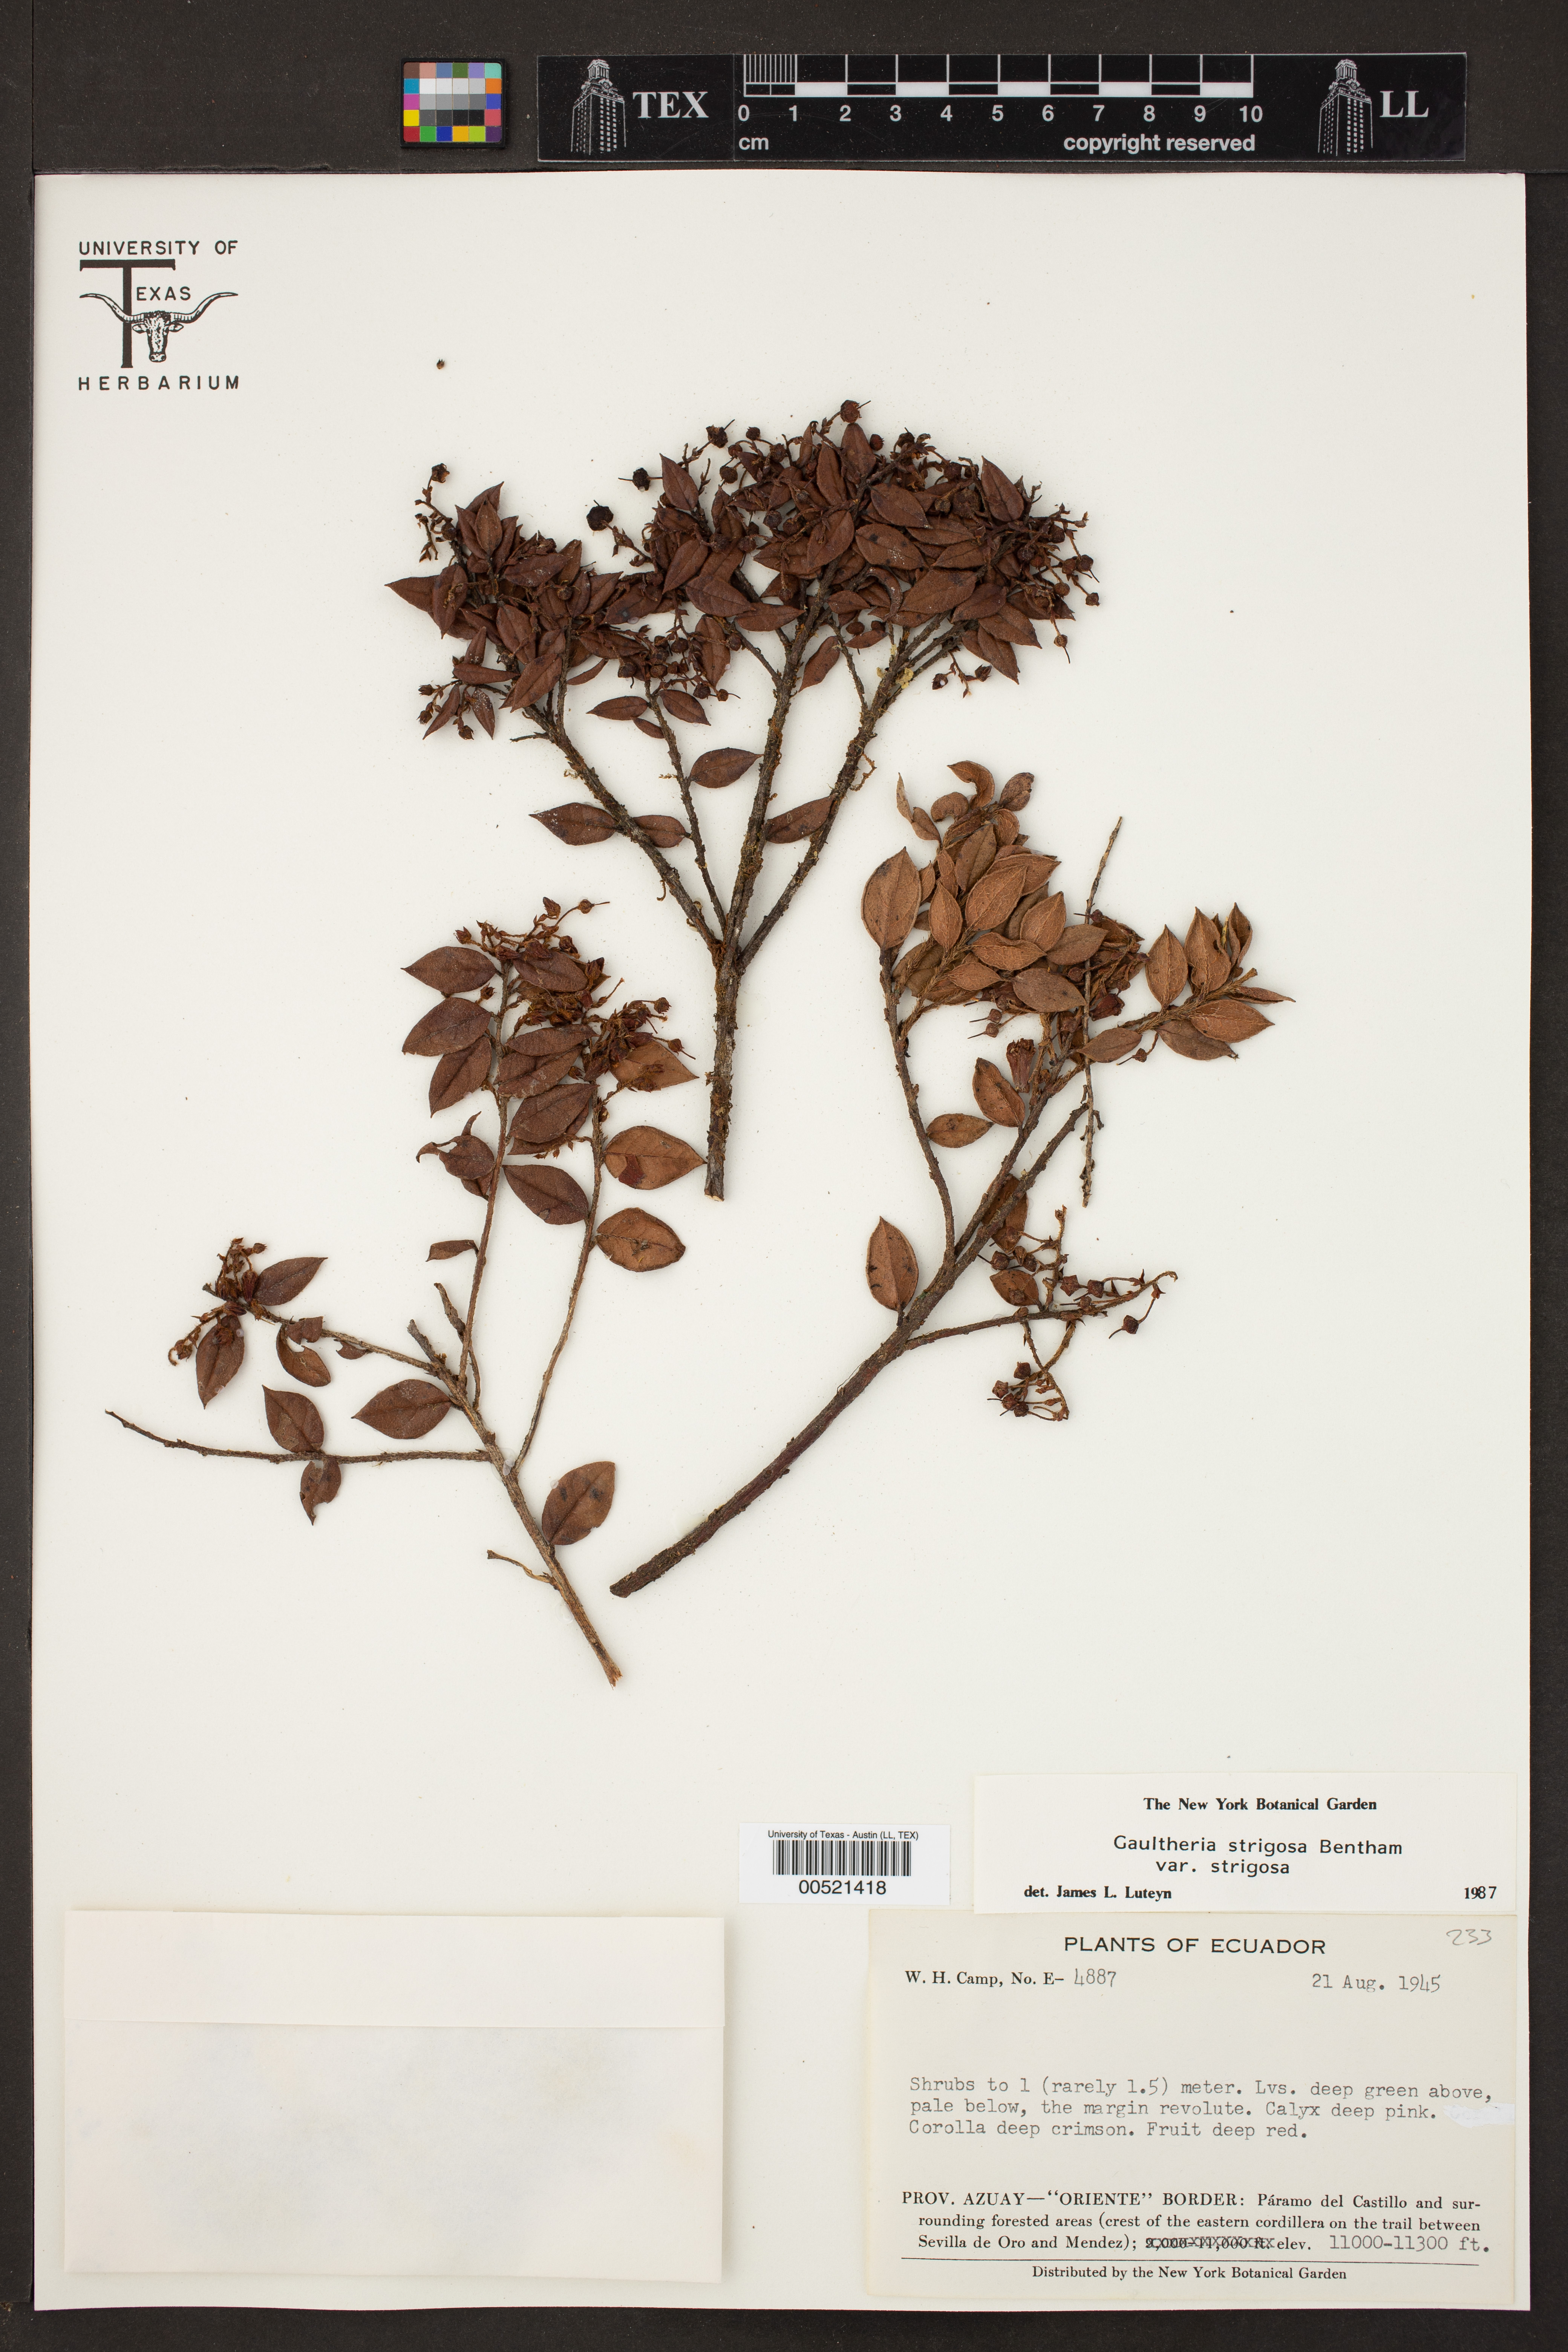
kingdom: Plantae
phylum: Tracheophyta
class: Magnoliopsida
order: Ericales
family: Ericaceae
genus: Gaultheria
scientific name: Gaultheria strigosa
